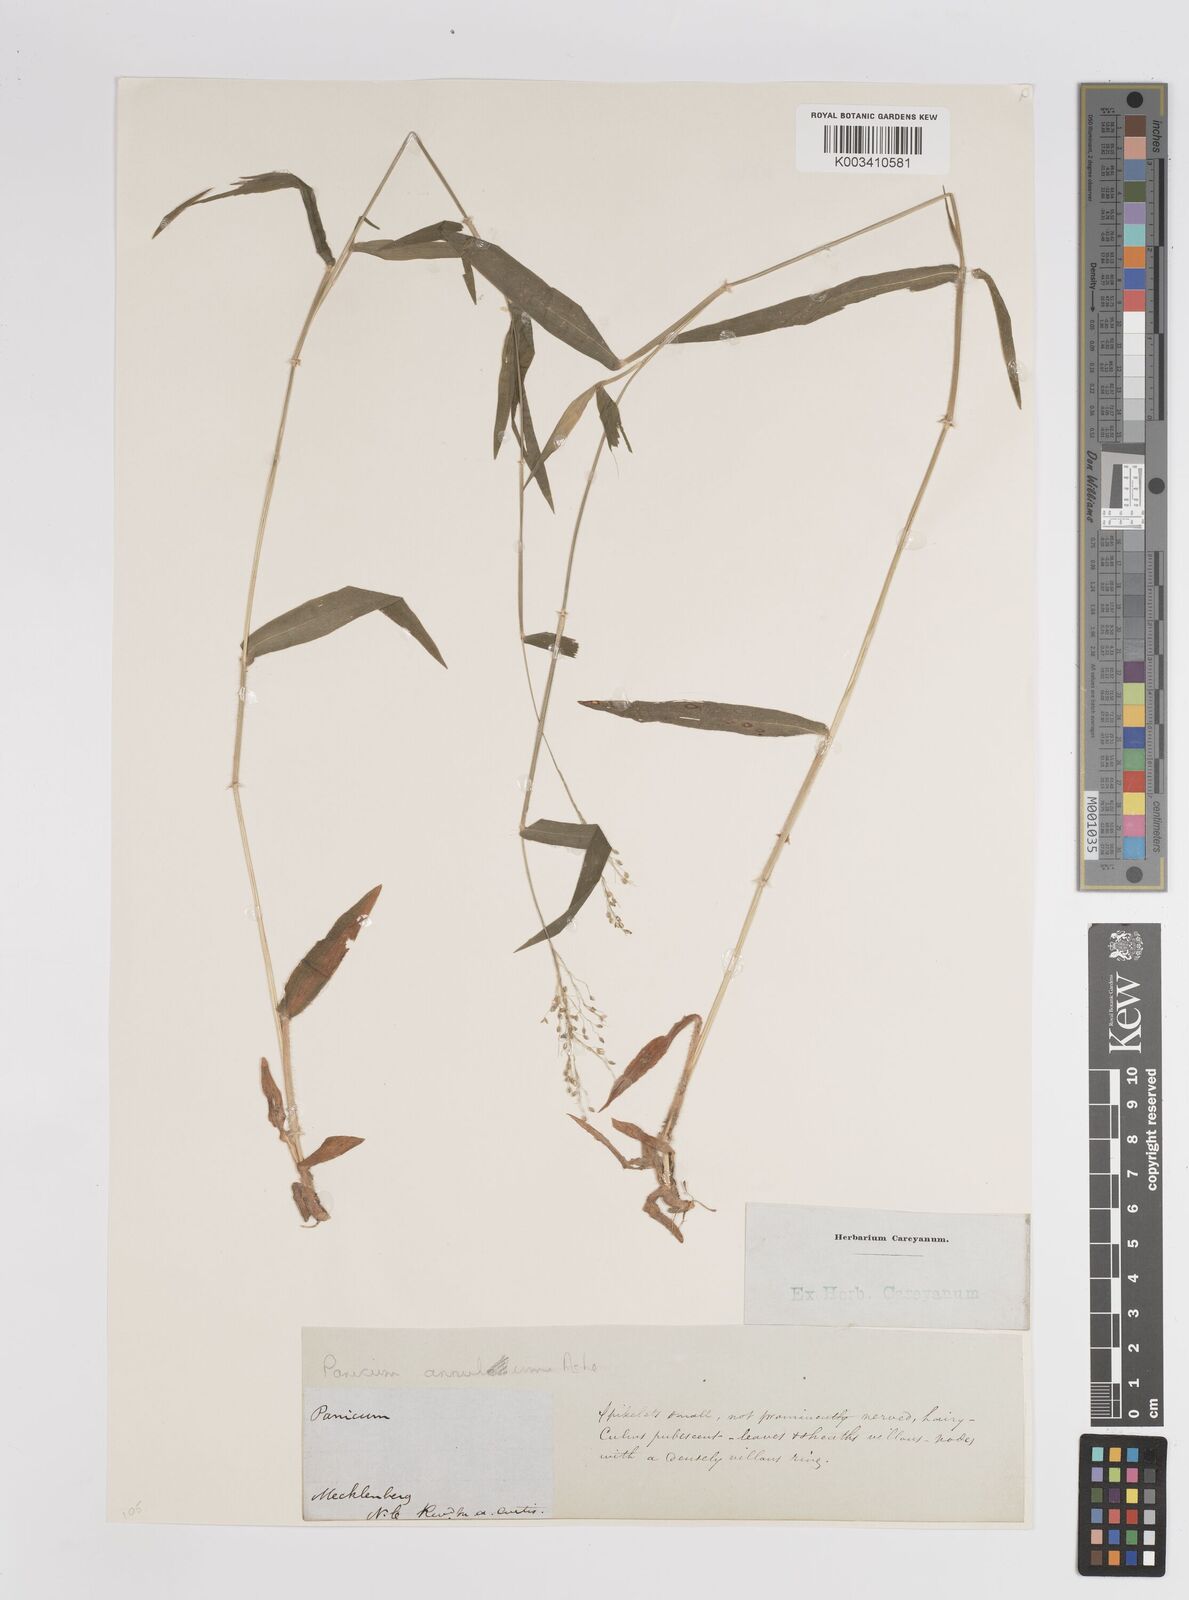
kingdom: Plantae
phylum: Tracheophyta
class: Liliopsida
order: Poales
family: Poaceae
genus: Dichanthelium
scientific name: Dichanthelium mattamuskeetense
